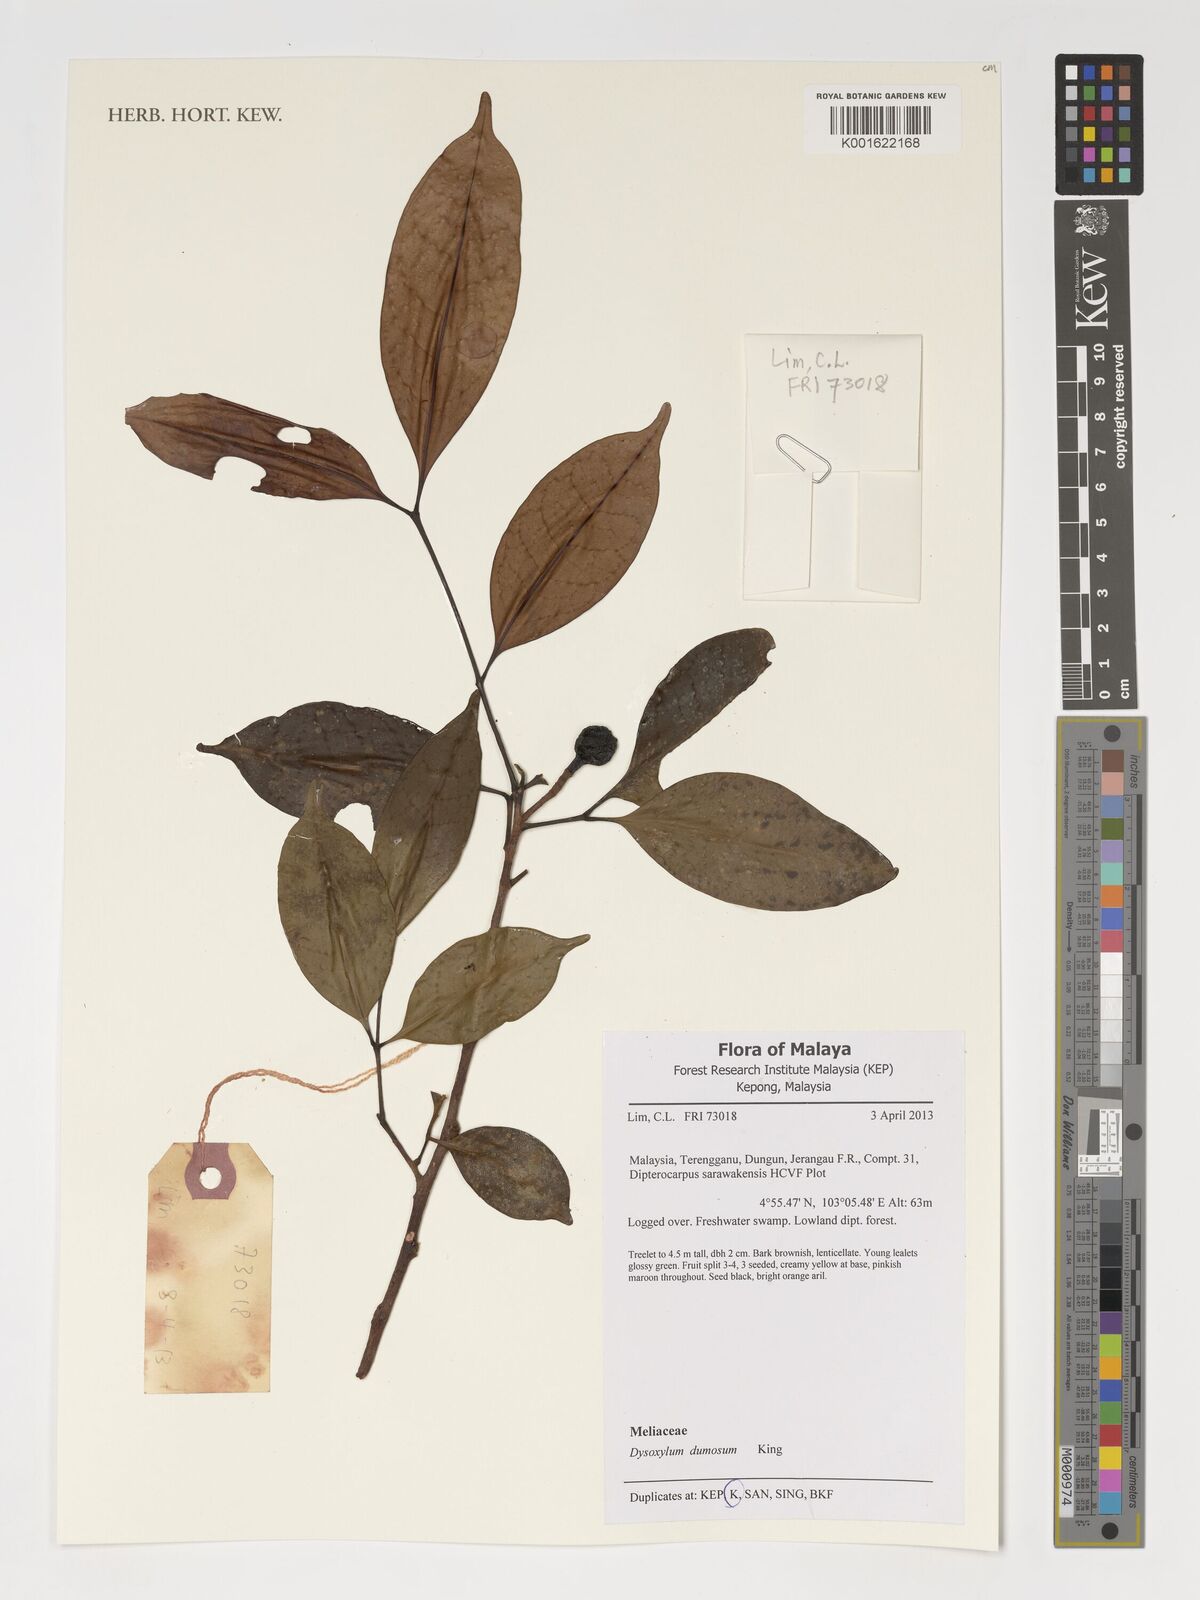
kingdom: Plantae
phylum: Tracheophyta
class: Magnoliopsida
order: Sapindales
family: Meliaceae
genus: Pseudocarapa
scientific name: Pseudocarapa dumosa
